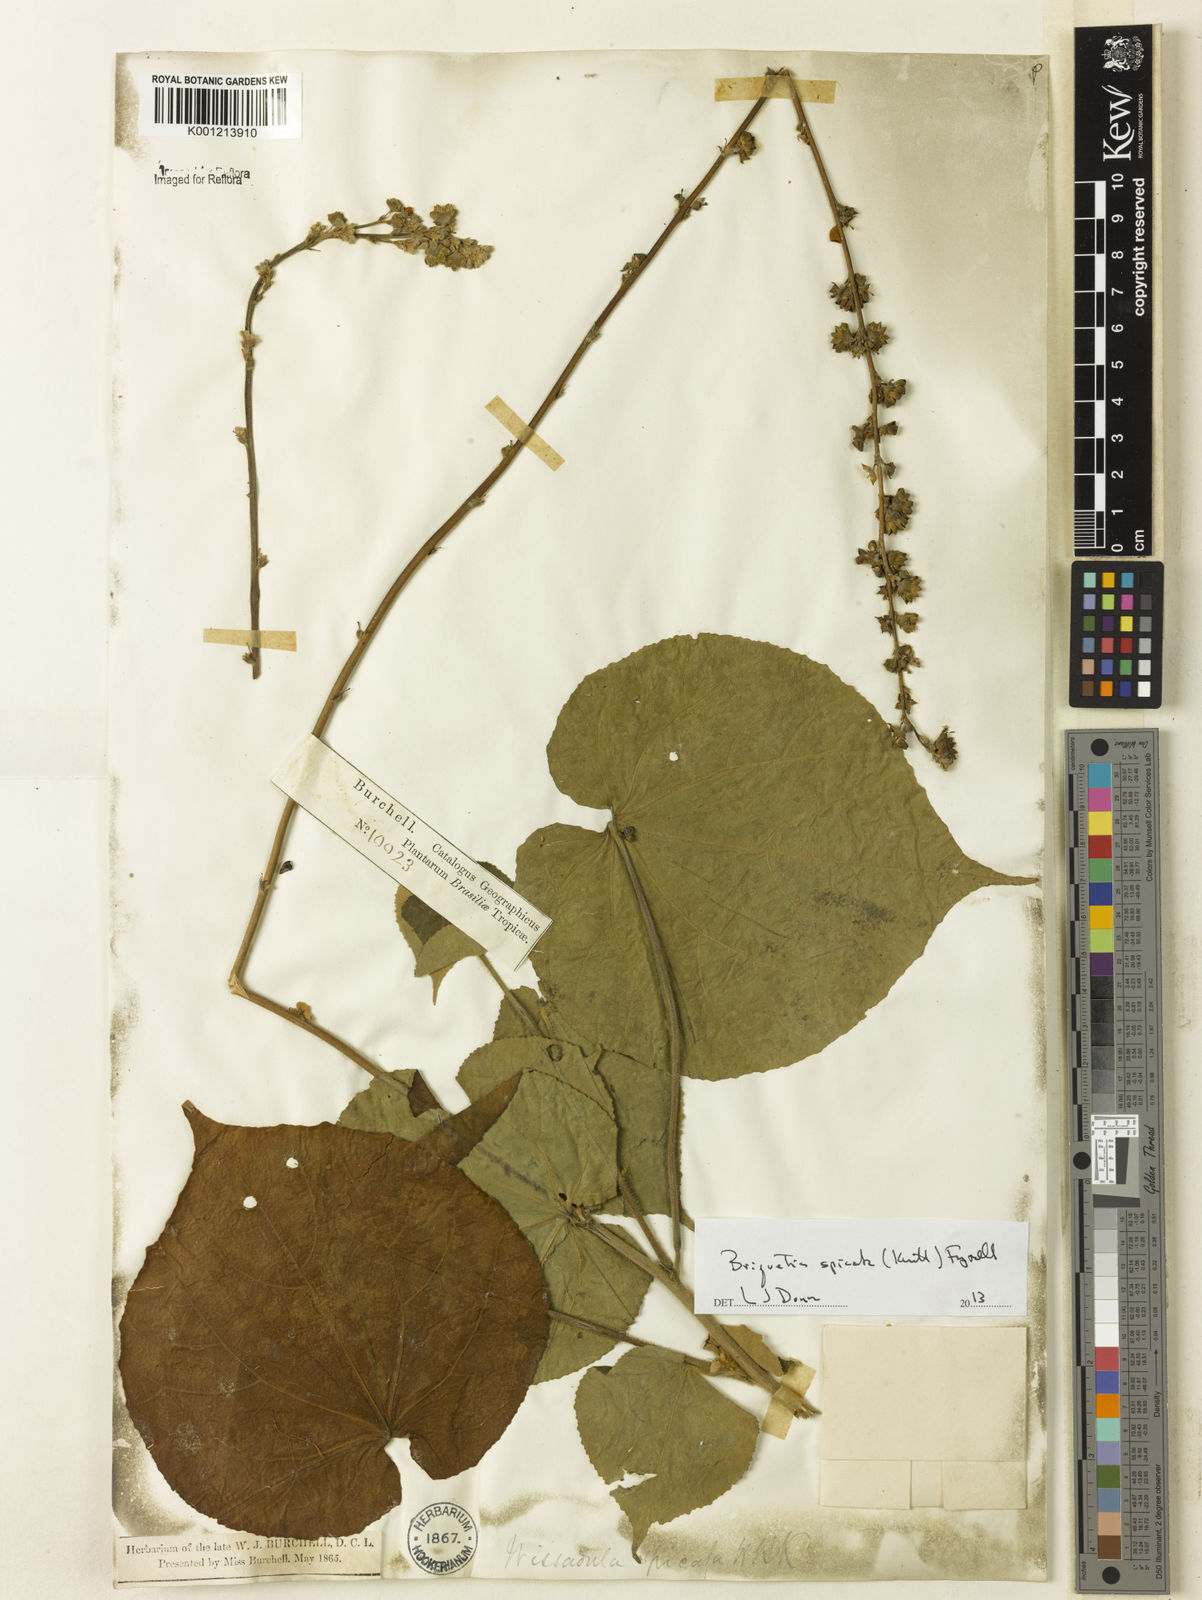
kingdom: Plantae
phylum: Tracheophyta
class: Magnoliopsida
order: Malvales
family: Malvaceae
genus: Allobriquetia
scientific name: Allobriquetia spicata
